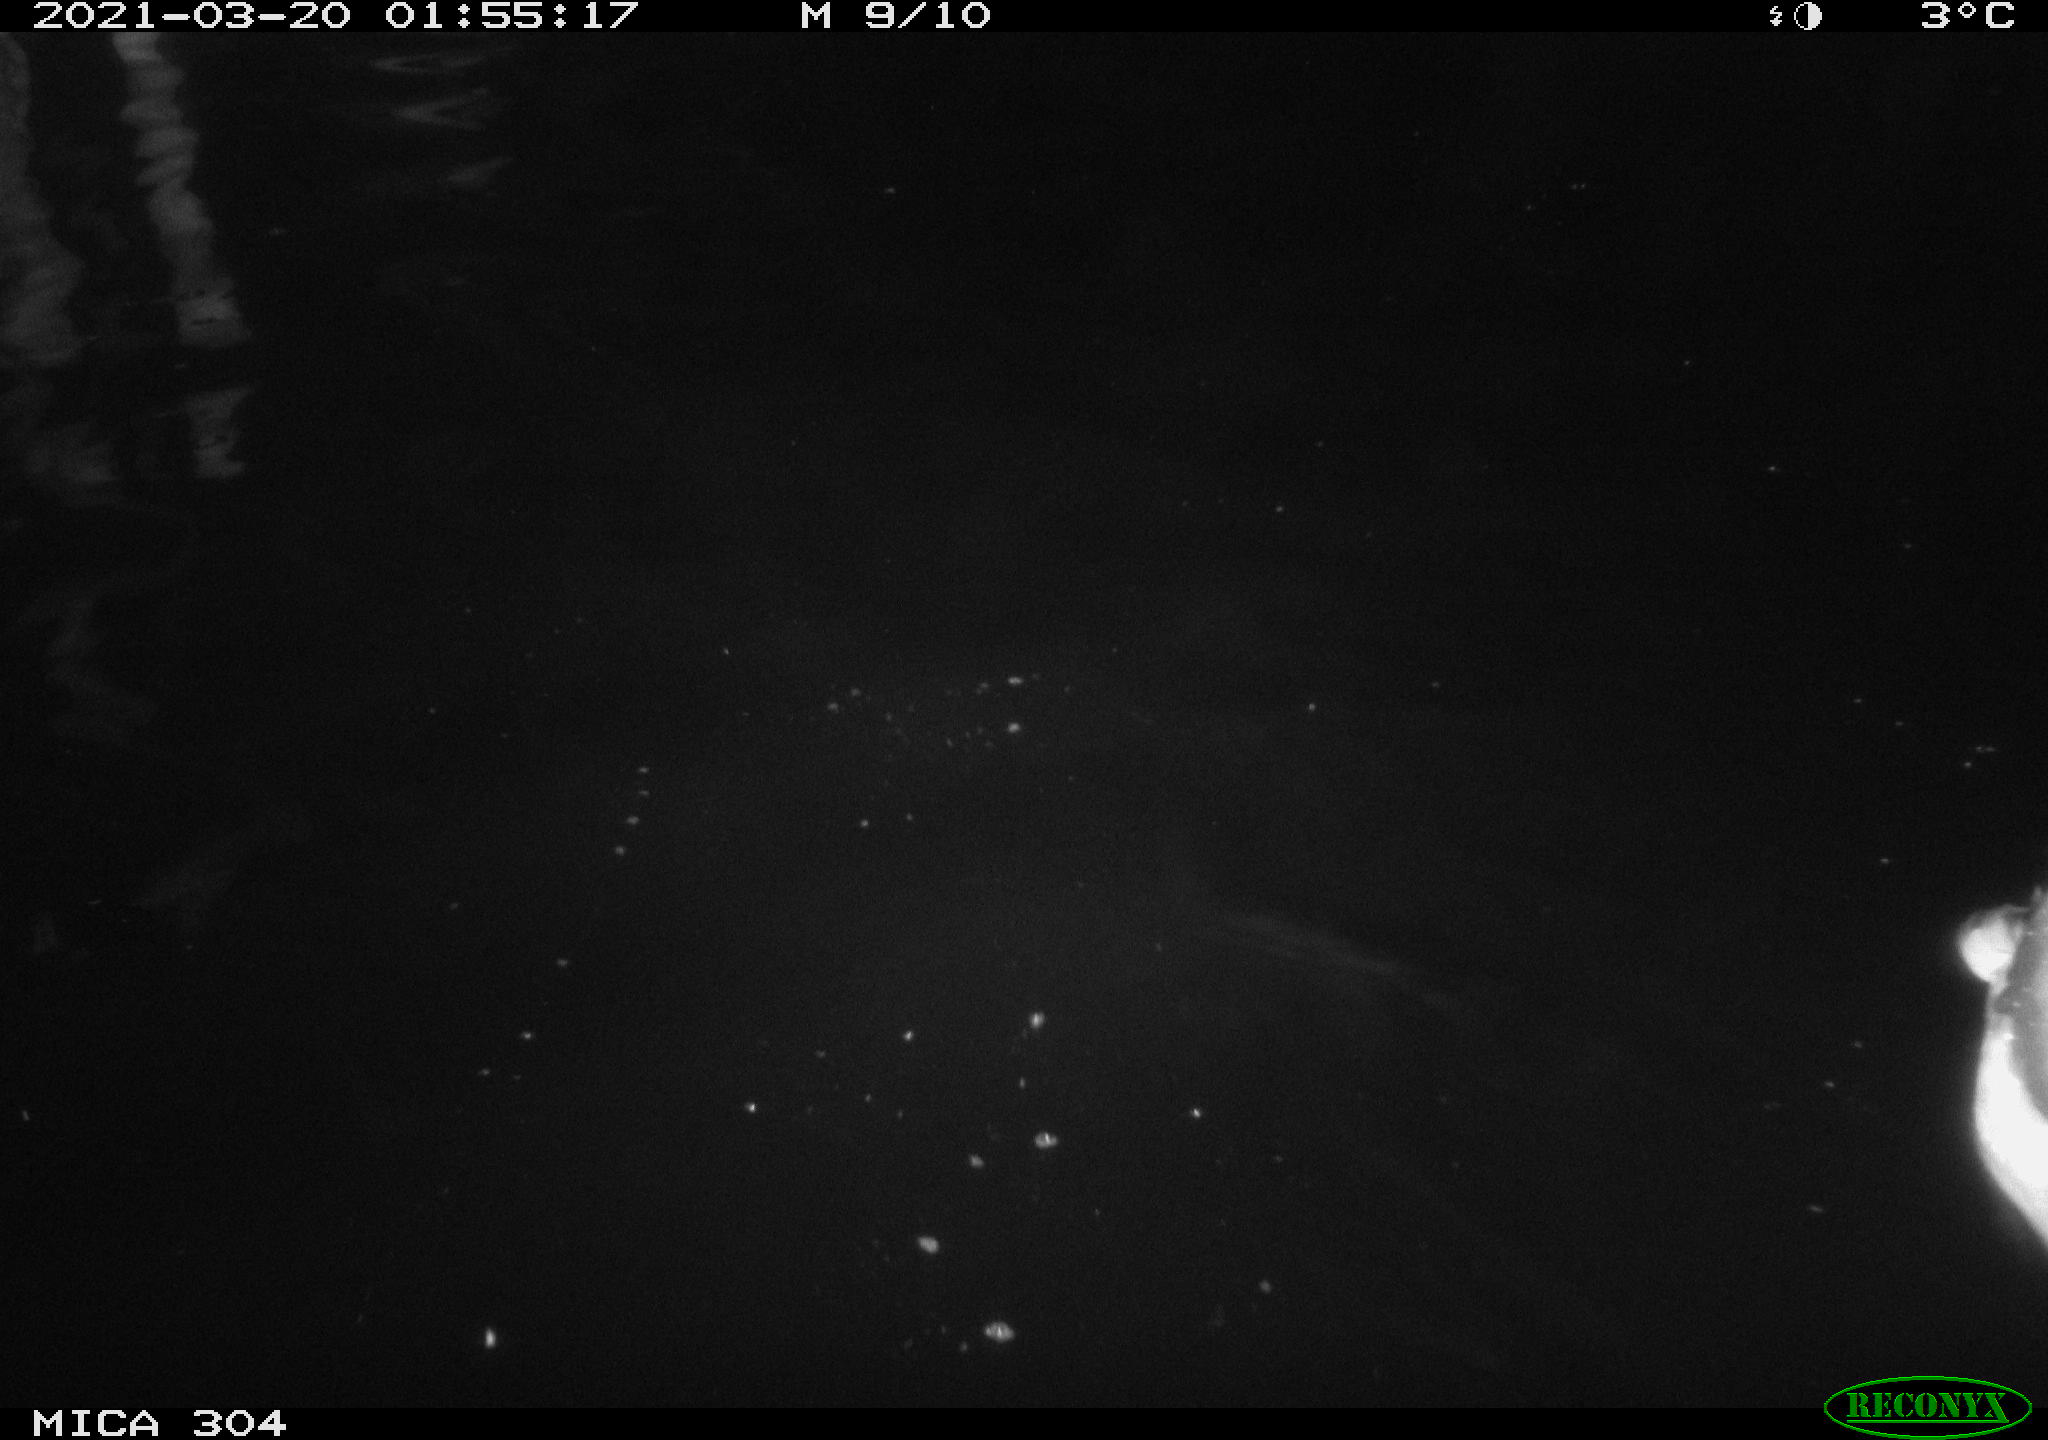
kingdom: Animalia
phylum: Chordata
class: Aves
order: Anseriformes
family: Anatidae
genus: Anas
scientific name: Anas platyrhynchos
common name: Mallard
